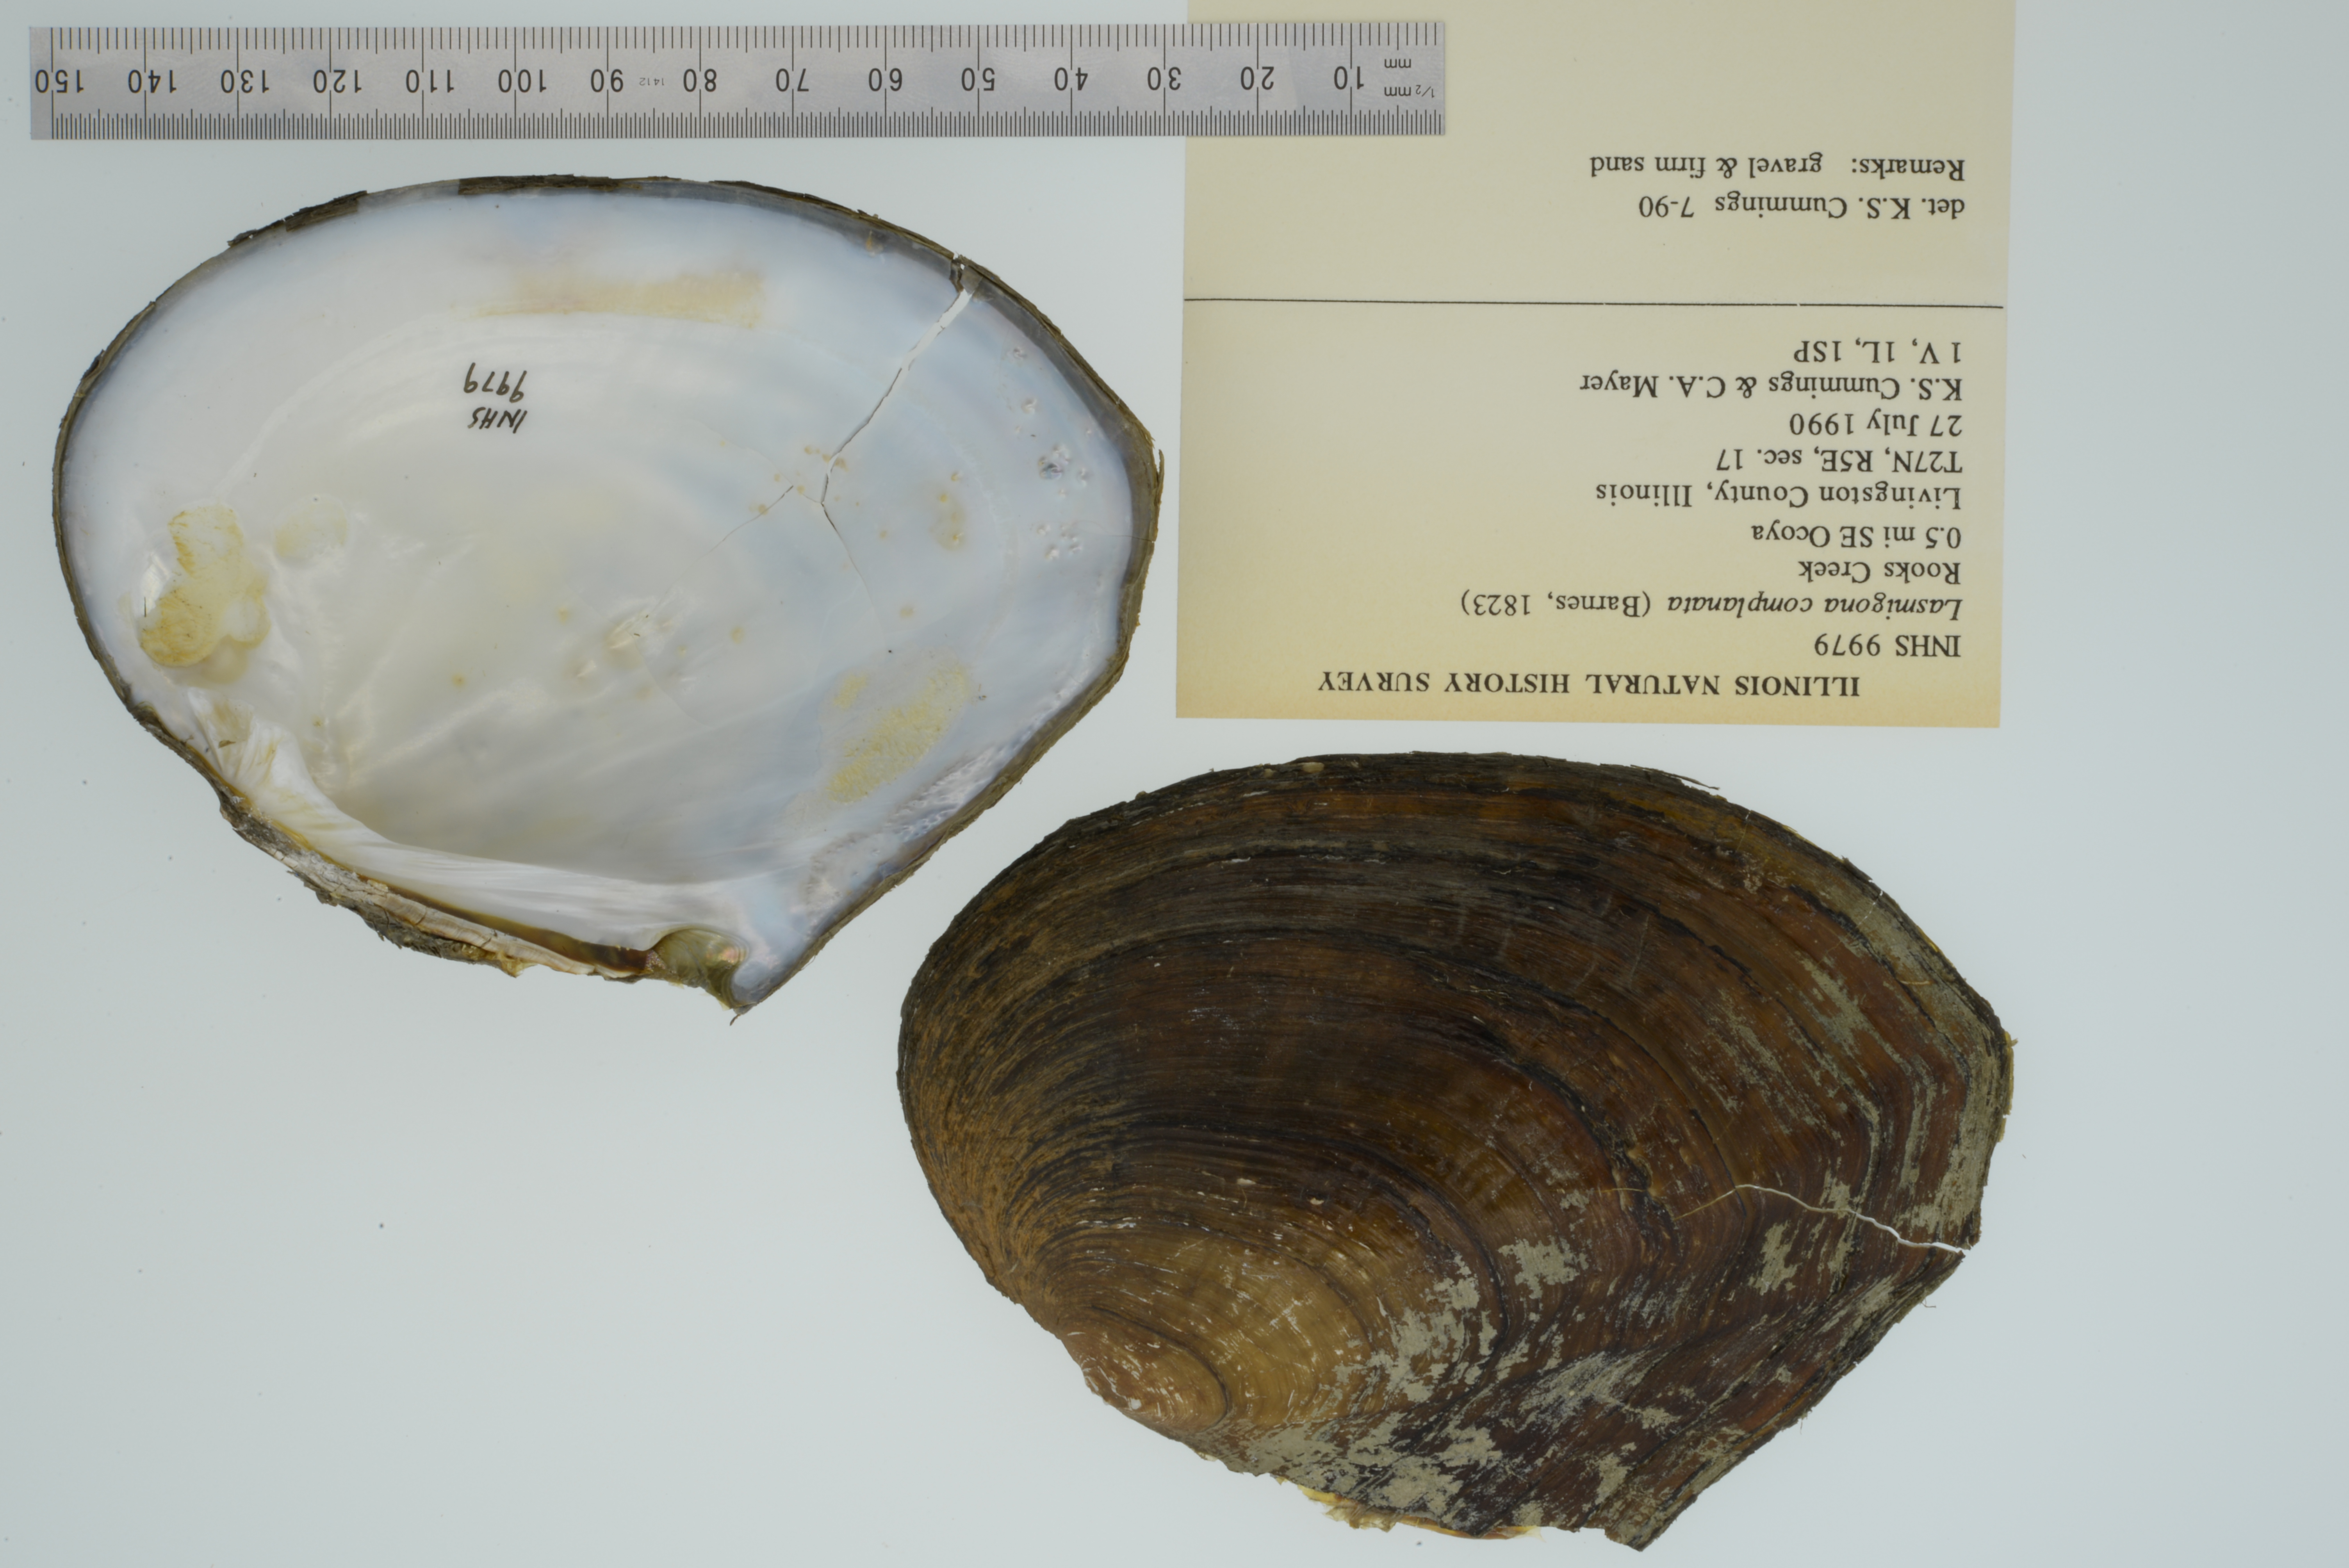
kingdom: Animalia
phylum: Mollusca
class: Bivalvia
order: Unionida
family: Unionidae
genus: Lasmigona
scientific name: Lasmigona complanata
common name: White heelsplitter
